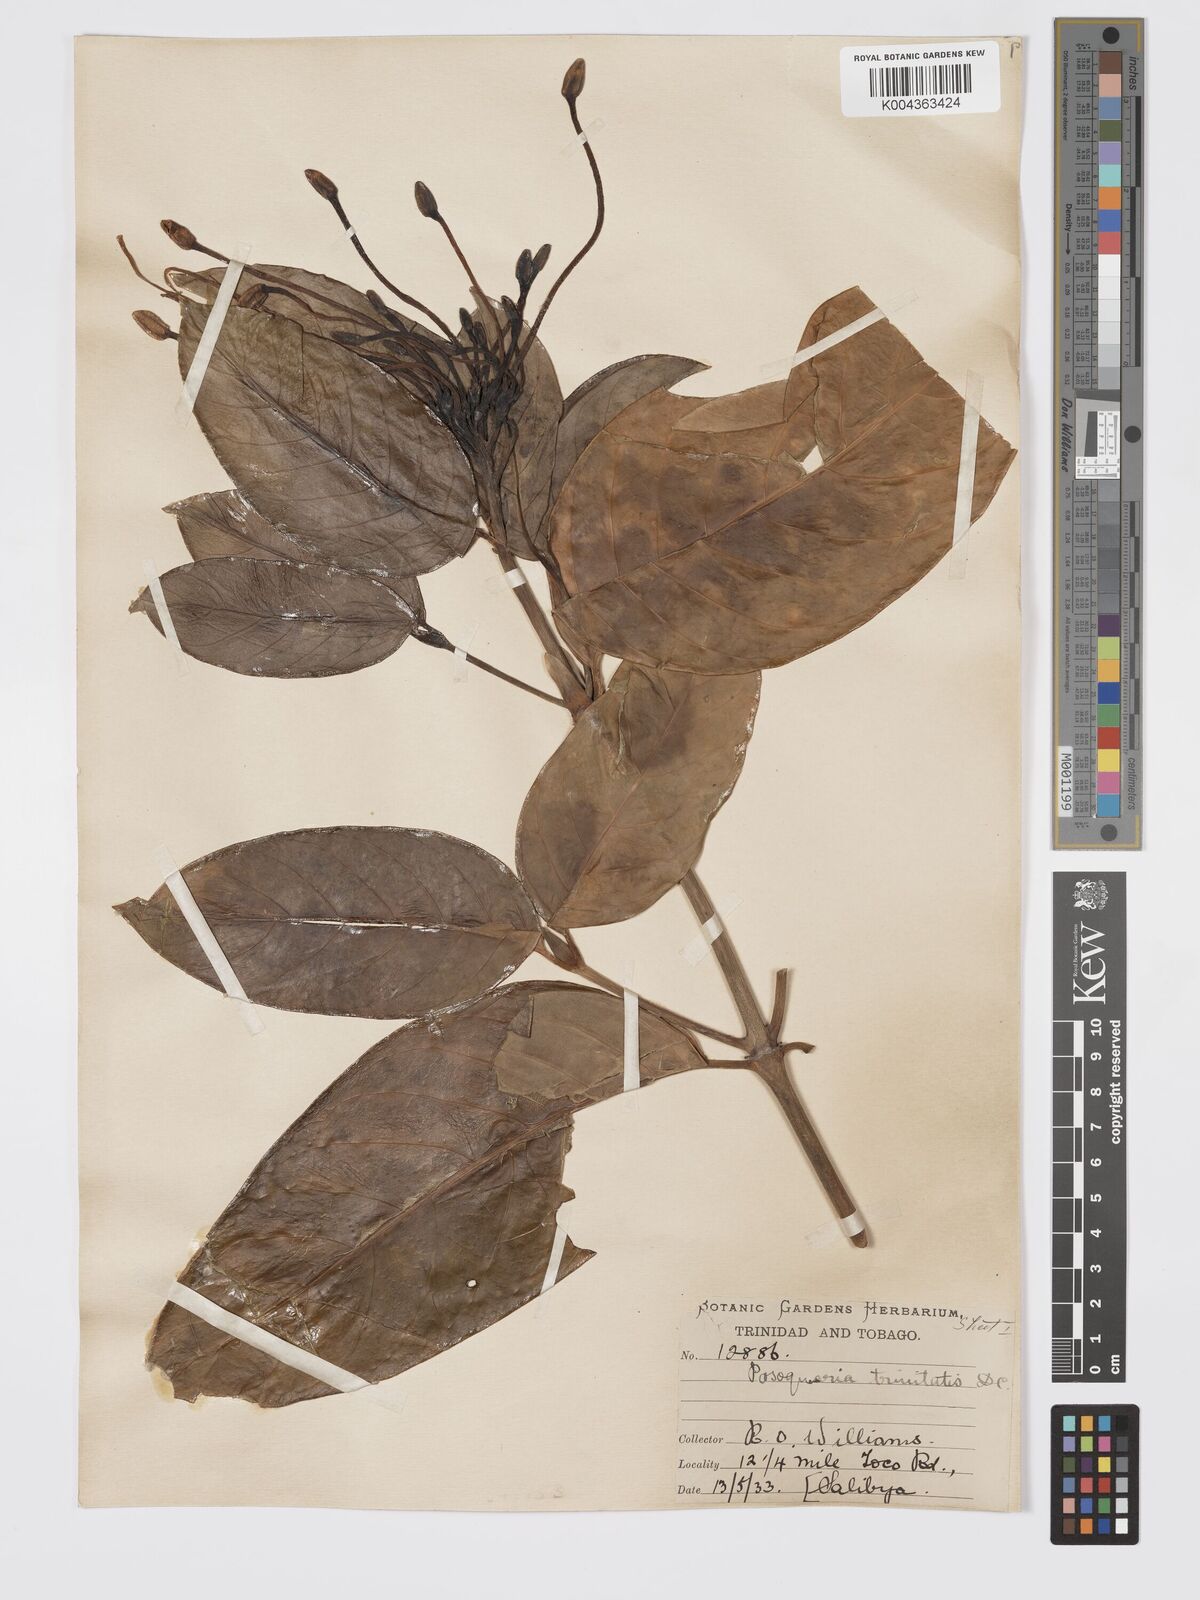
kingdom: Plantae
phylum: Tracheophyta
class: Magnoliopsida
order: Gentianales
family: Rubiaceae
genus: Posoqueria
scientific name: Posoqueria trinitatis
